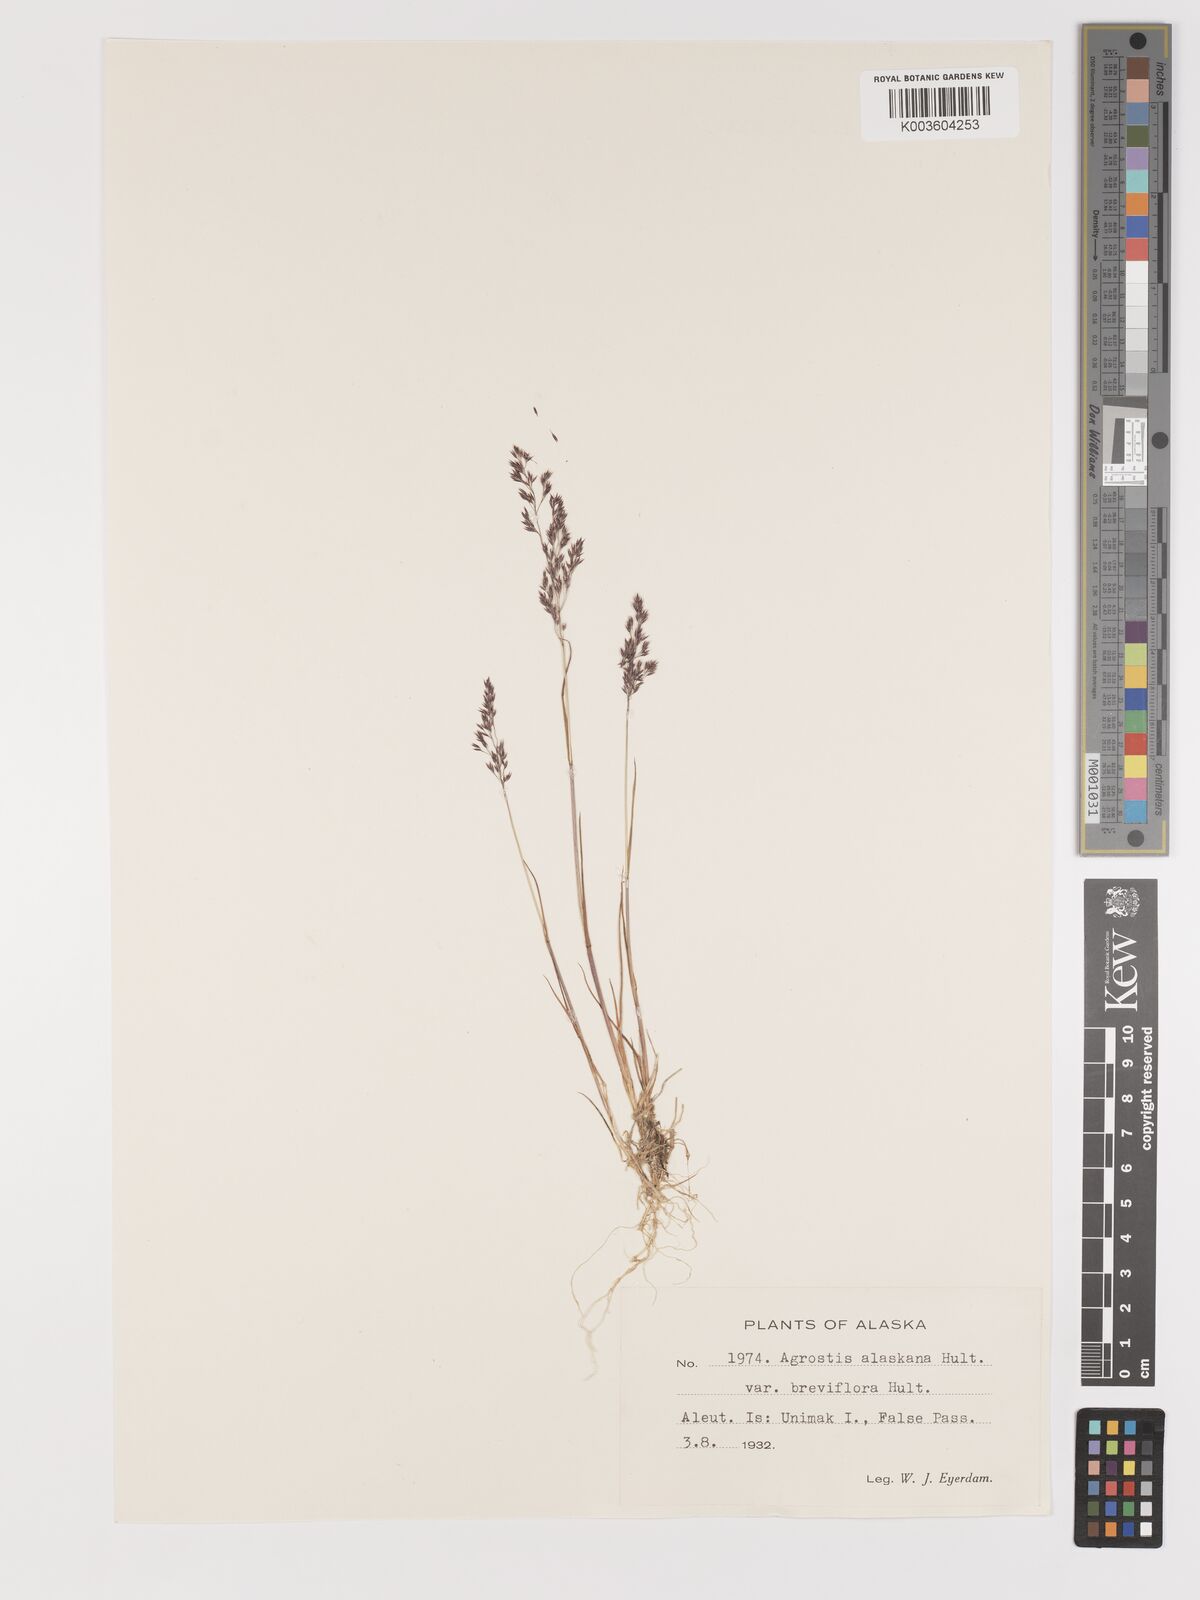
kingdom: Plantae
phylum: Tracheophyta
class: Liliopsida
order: Poales
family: Poaceae
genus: Agrostis
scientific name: Agrostis exarata
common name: Spike bent
